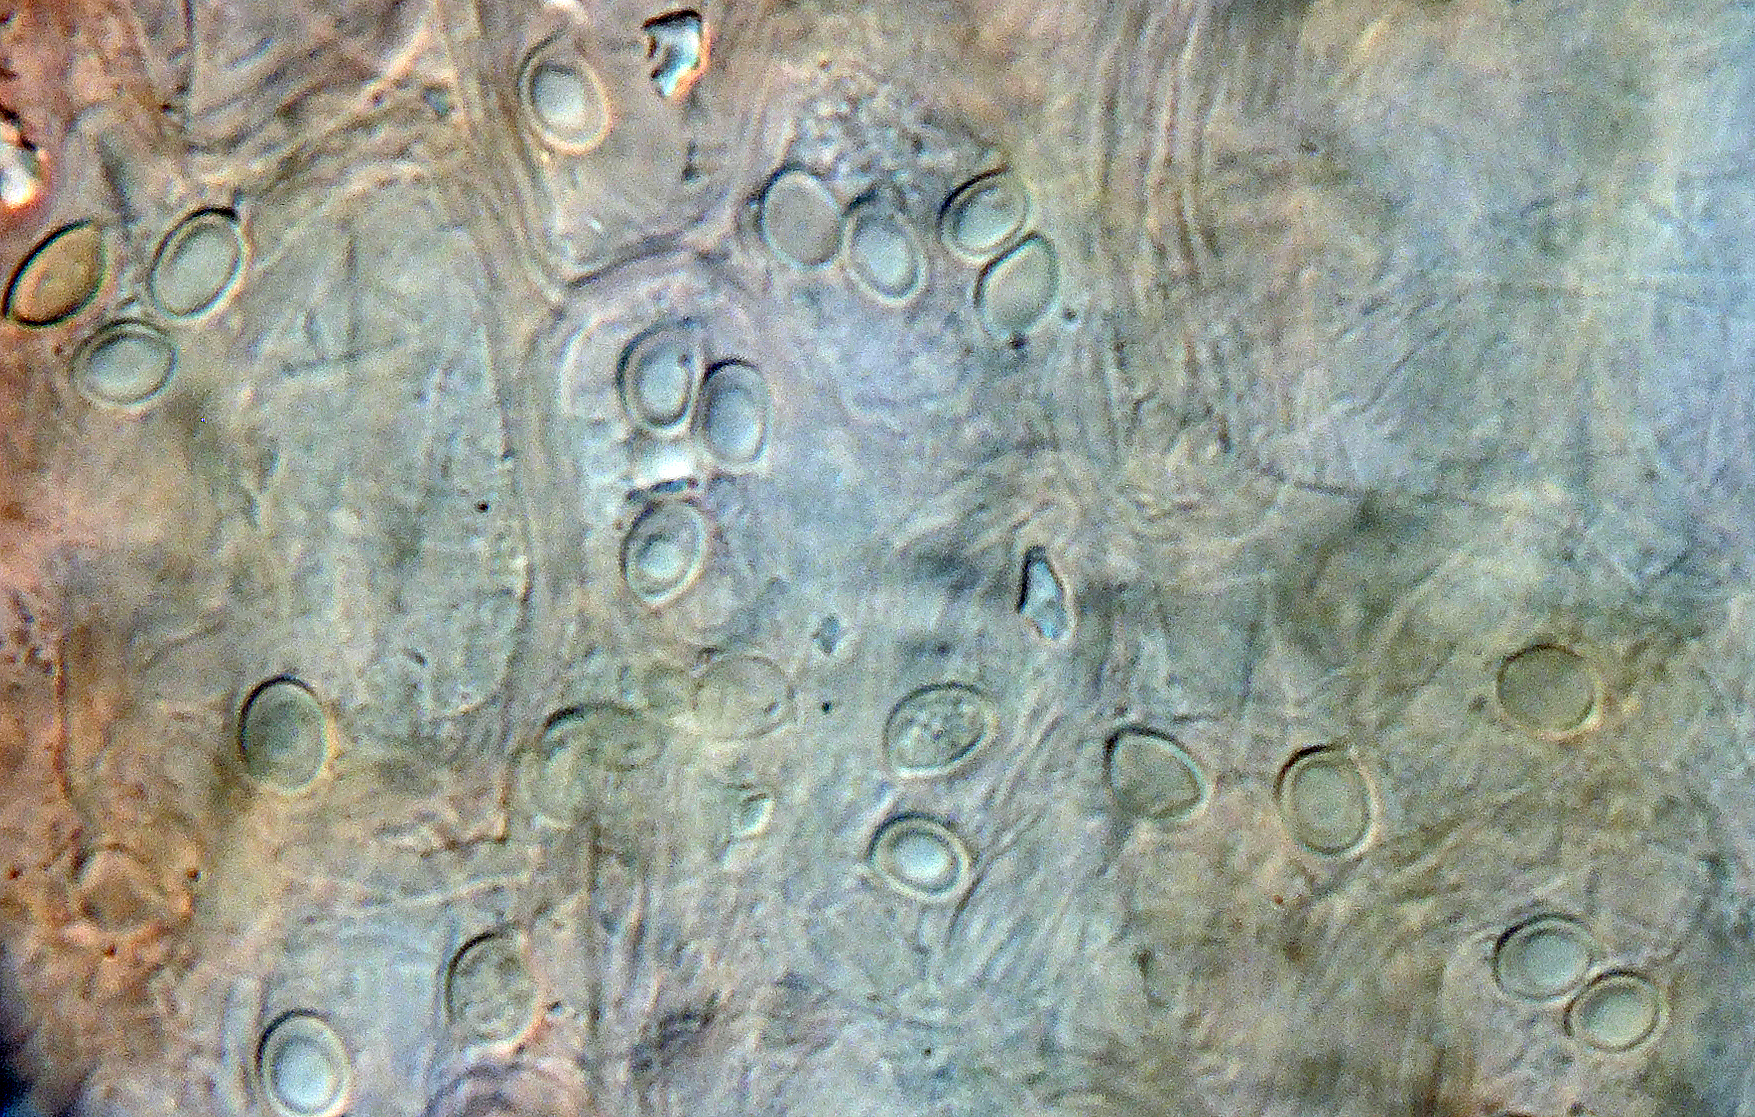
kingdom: Fungi
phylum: Basidiomycota
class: Agaricomycetes
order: Agaricales
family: Tricholomataceae
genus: Dermoloma
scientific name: Dermoloma
